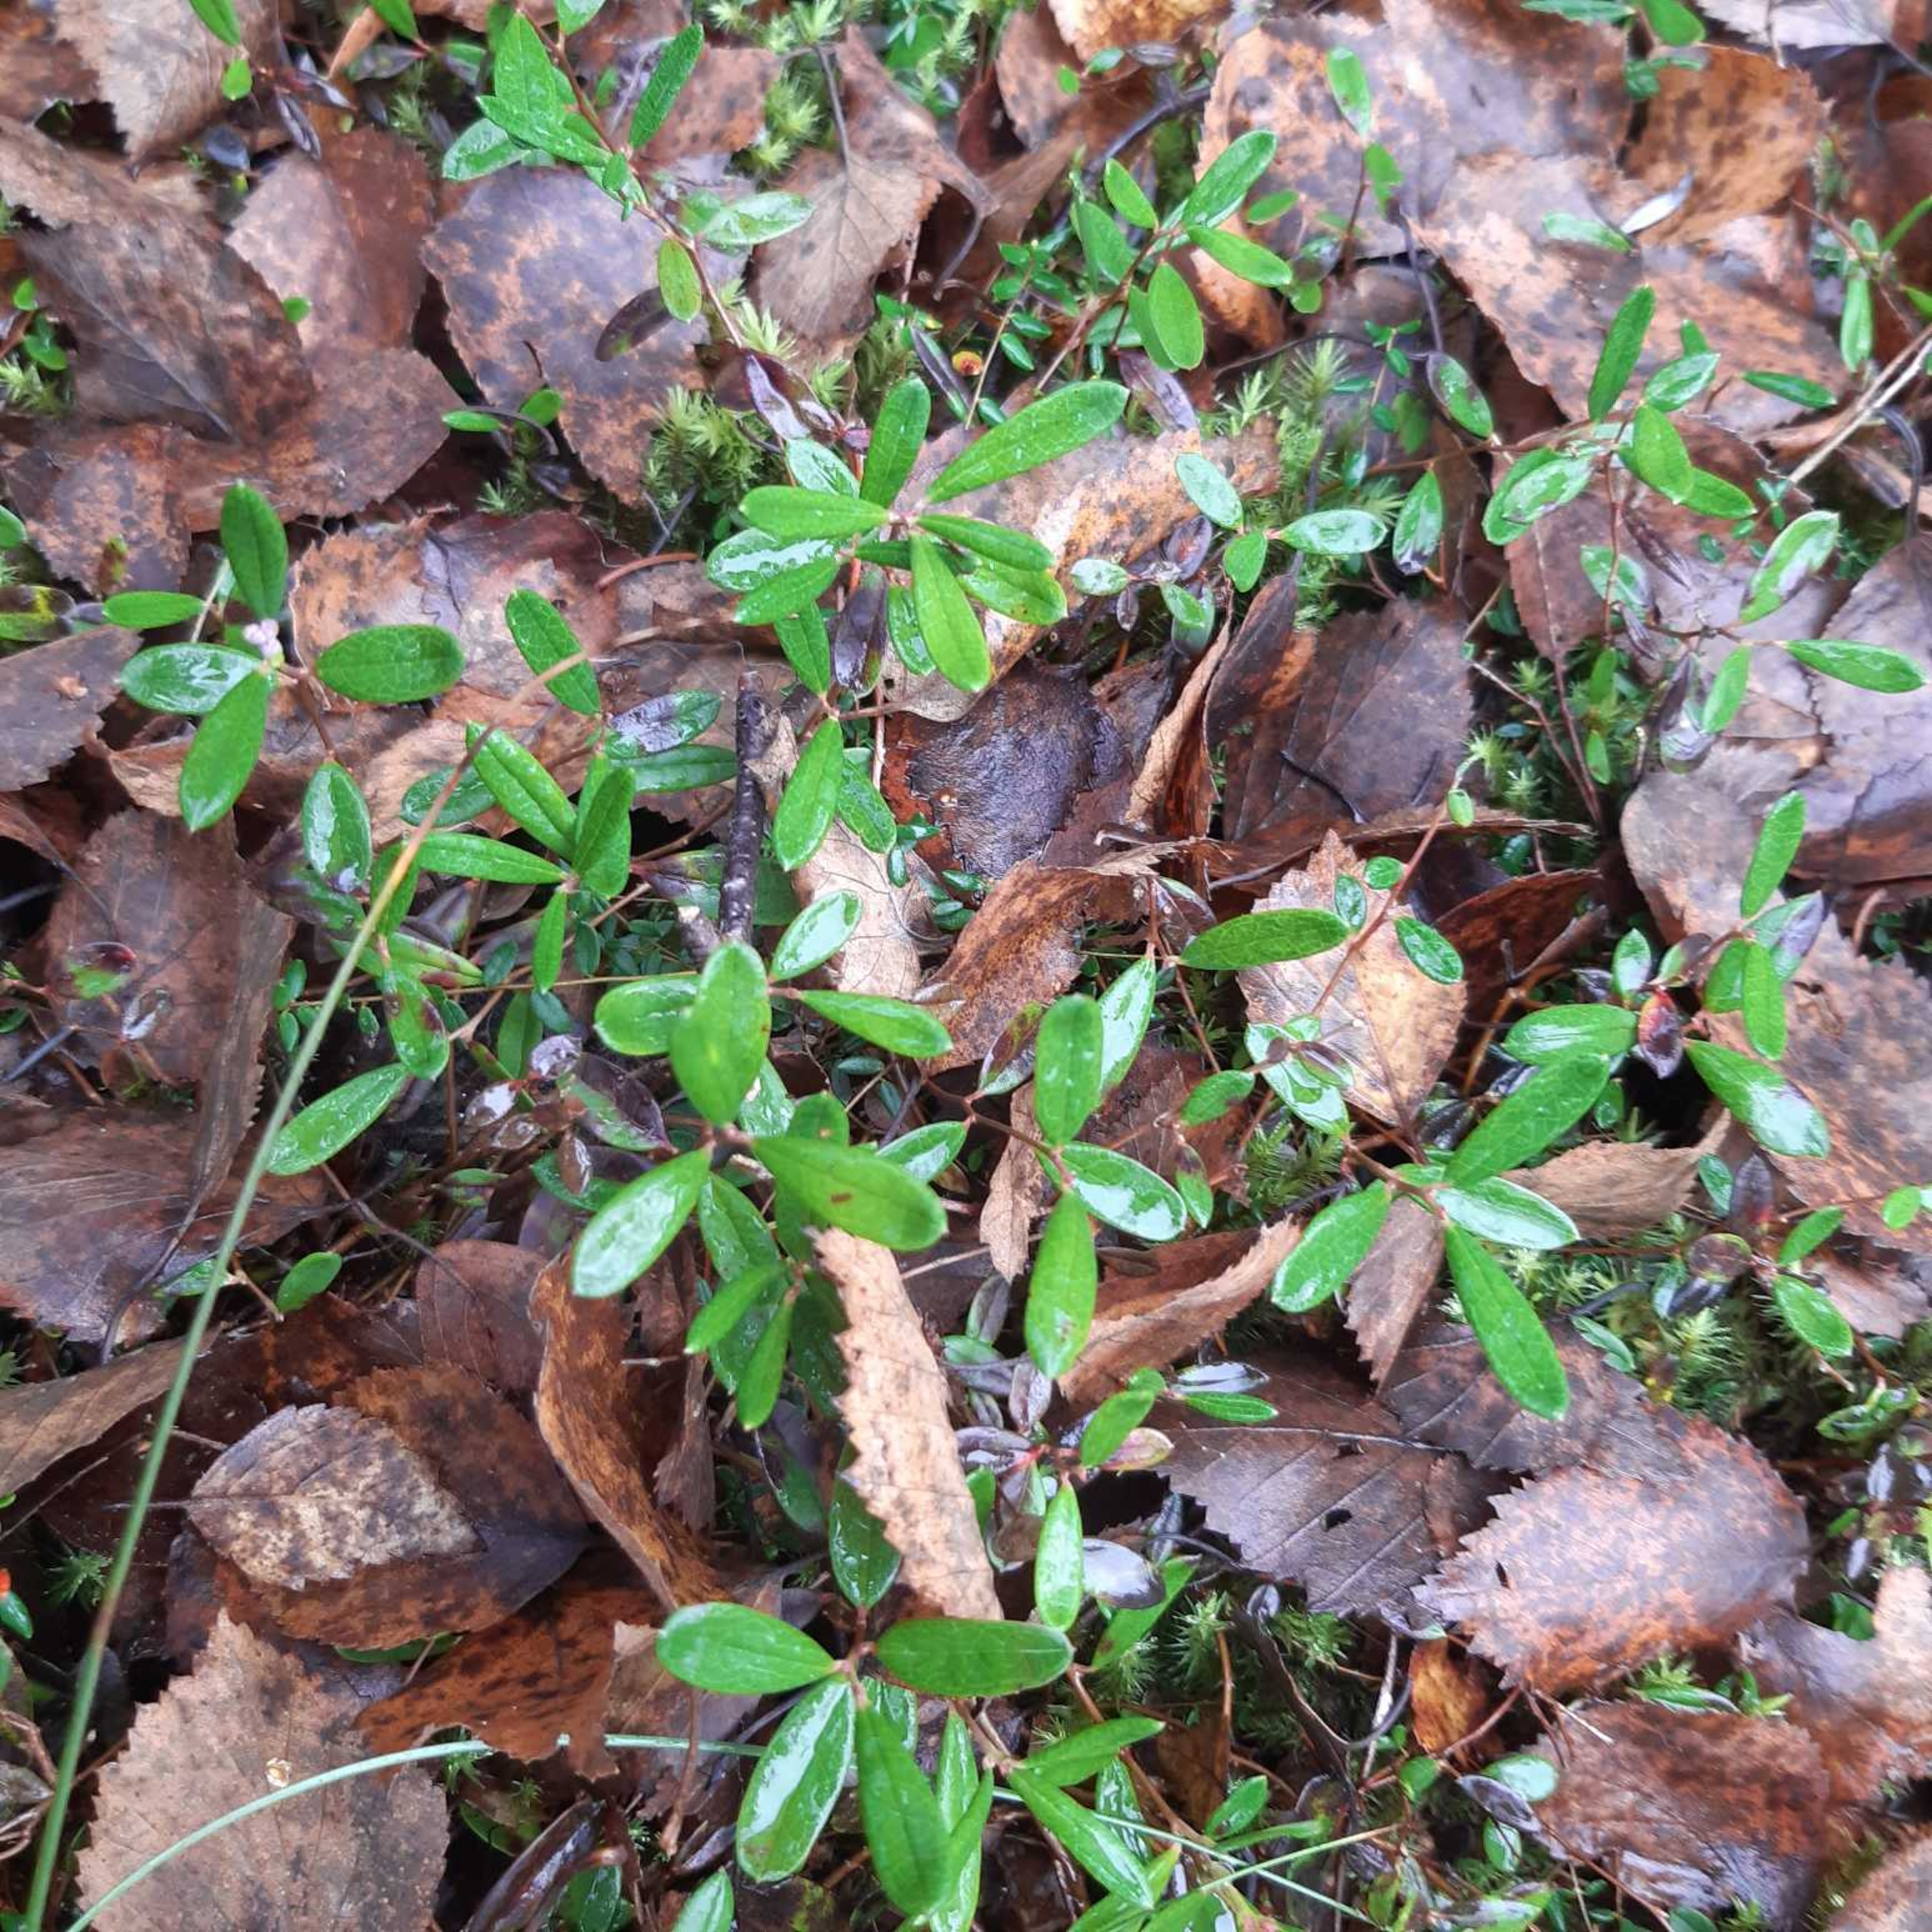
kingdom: Plantae
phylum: Tracheophyta
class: Magnoliopsida
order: Ericales
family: Ericaceae
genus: Andromeda
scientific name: Andromeda polifolia
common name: Rosmarinlyng
